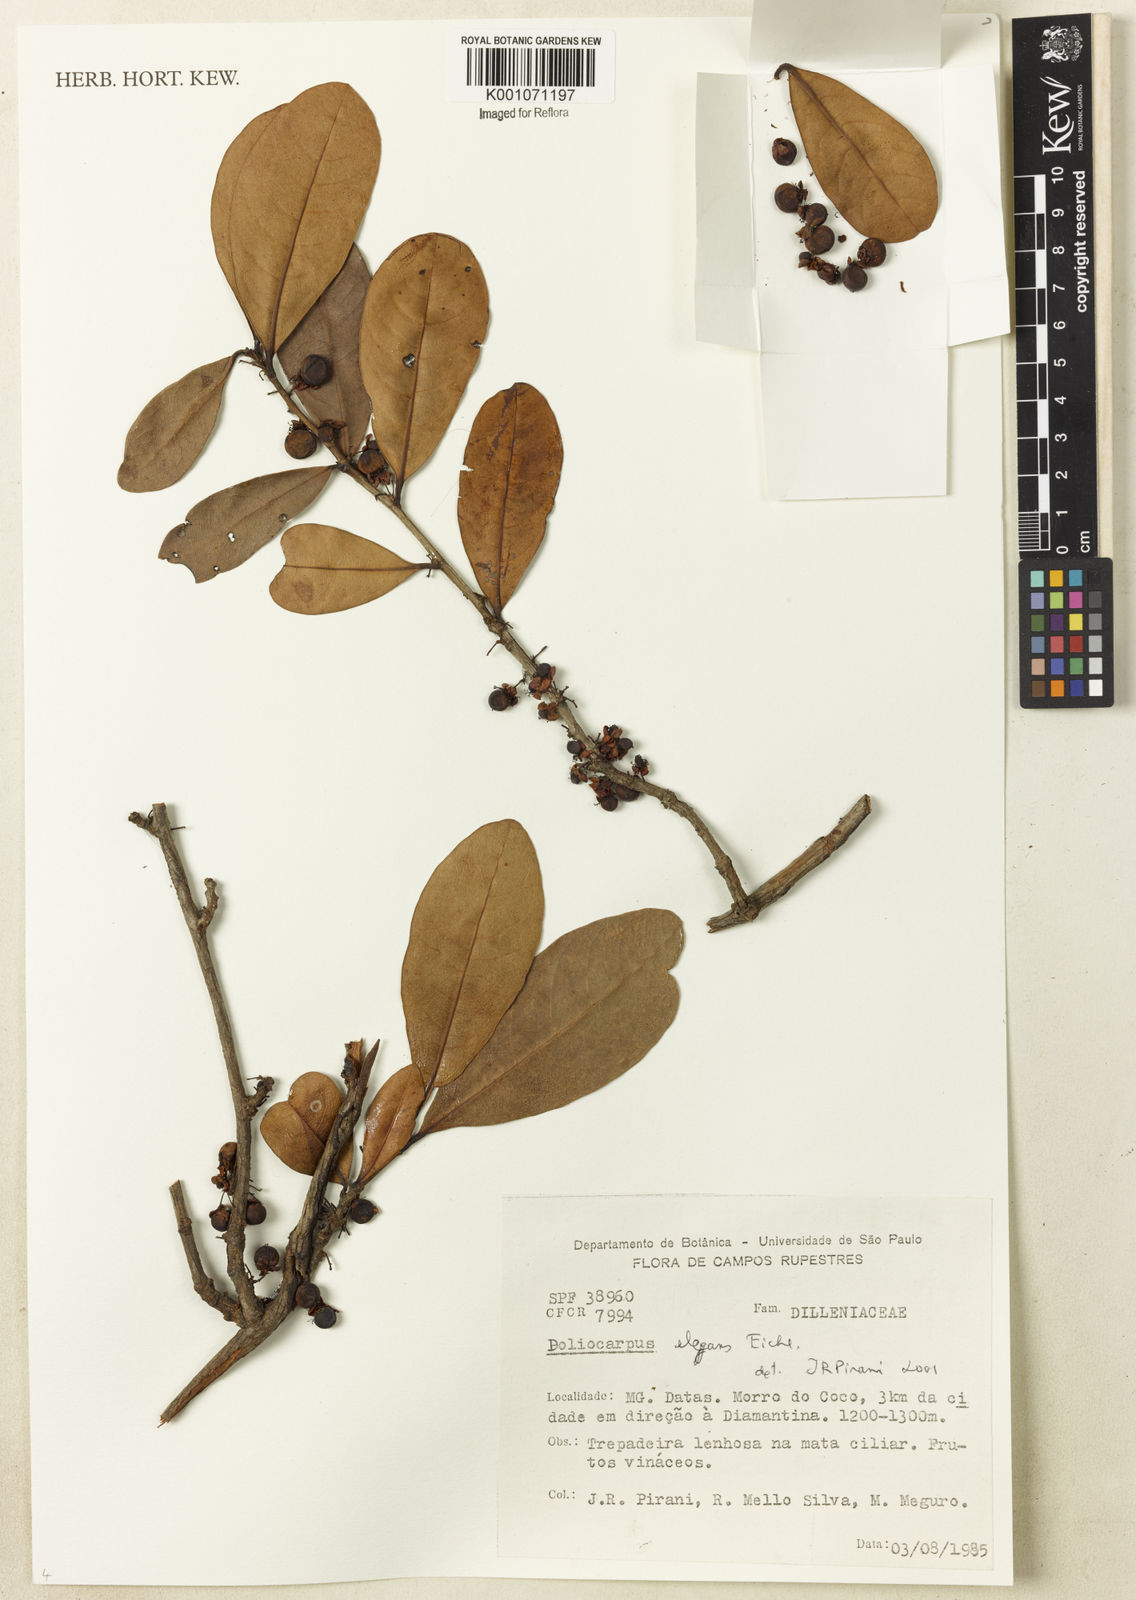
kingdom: Plantae
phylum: Tracheophyta
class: Magnoliopsida
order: Dilleniales
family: Dilleniaceae
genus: Doliocarpus
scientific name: Doliocarpus elegans
